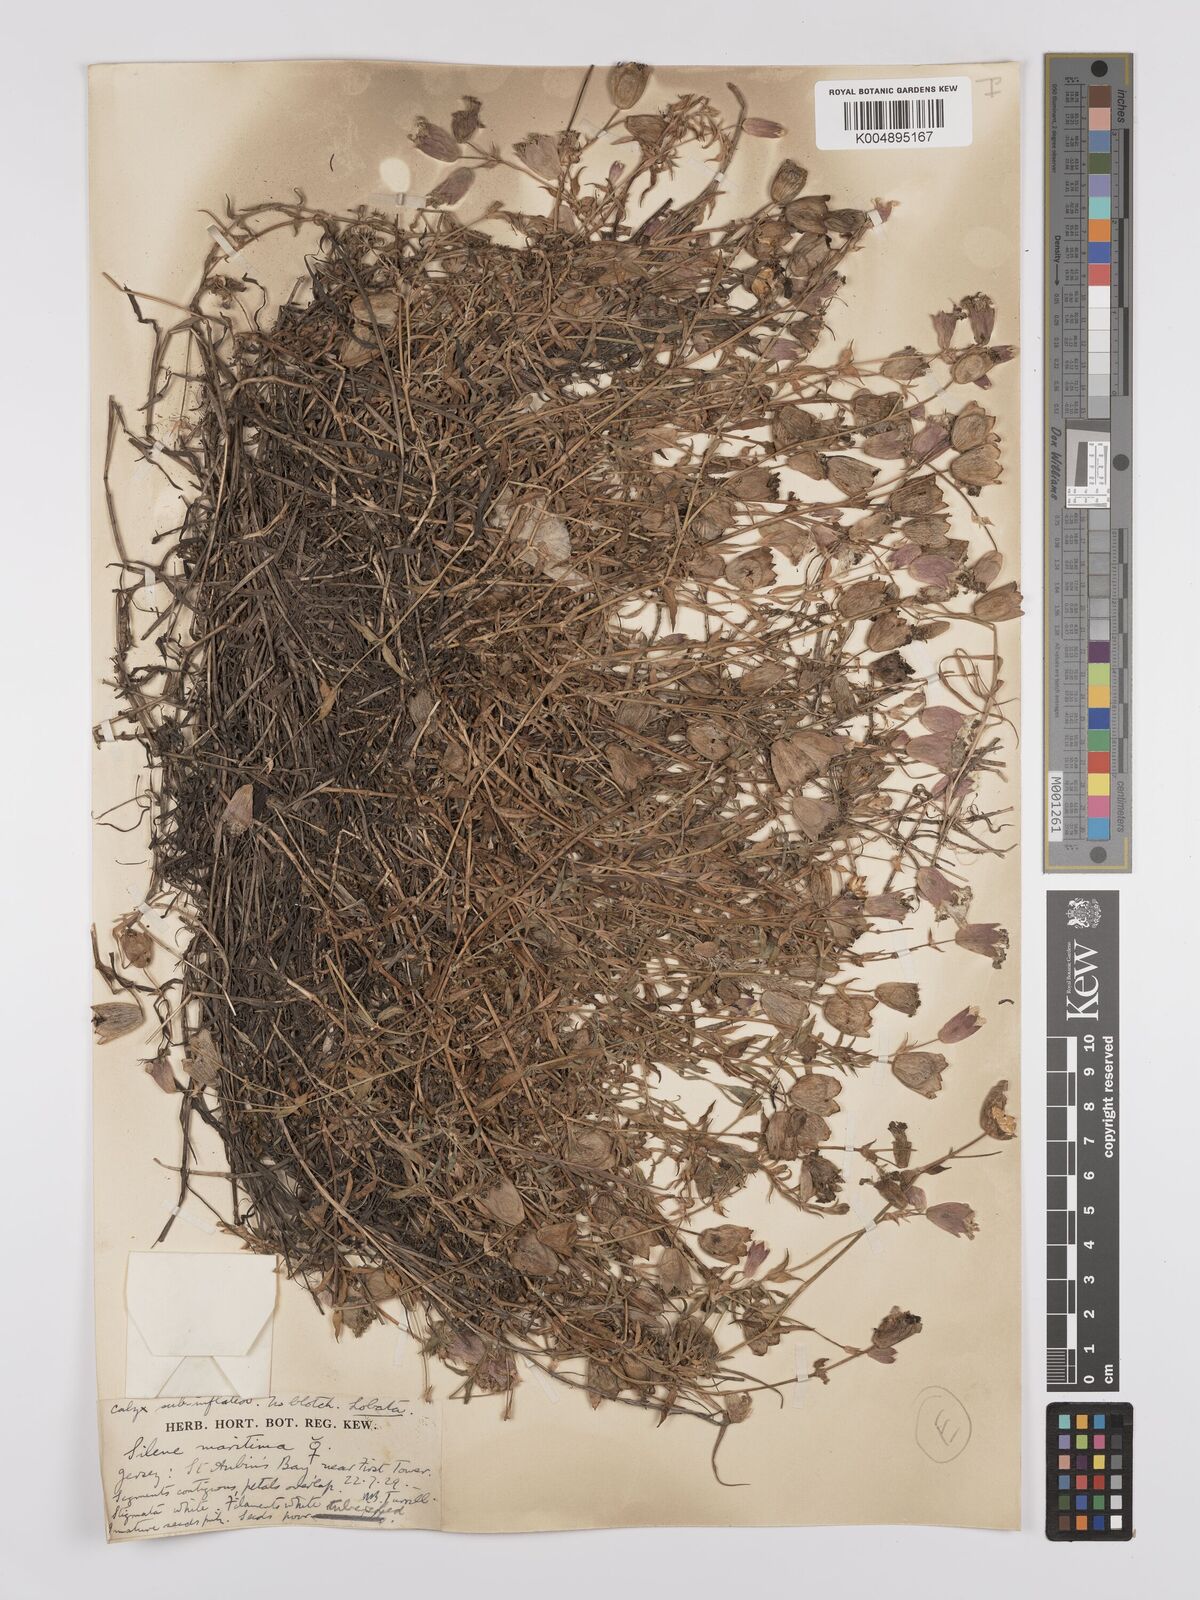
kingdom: Plantae
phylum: Tracheophyta
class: Magnoliopsida
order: Caryophyllales
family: Caryophyllaceae
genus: Silene
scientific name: Silene uniflora
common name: Sea campion
